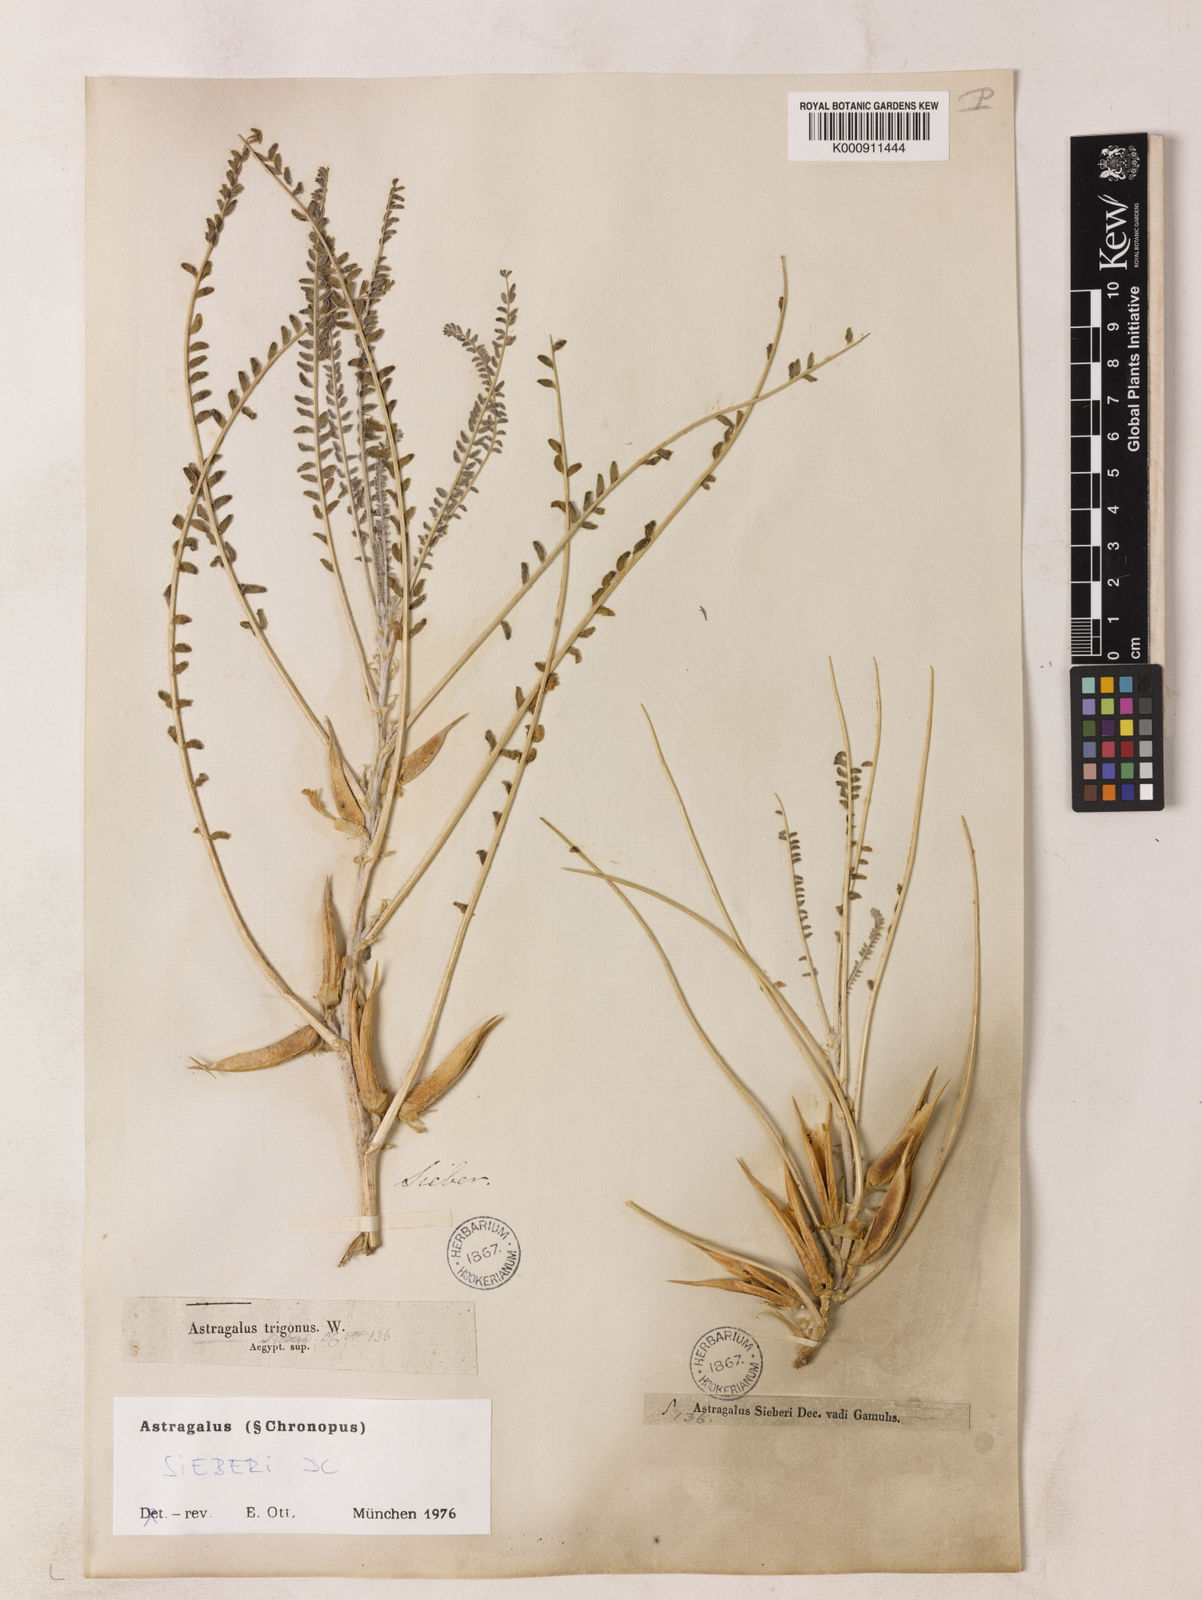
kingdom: Plantae
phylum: Tracheophyta
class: Magnoliopsida
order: Fabales
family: Fabaceae
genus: Astragalus
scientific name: Astragalus sieberi
